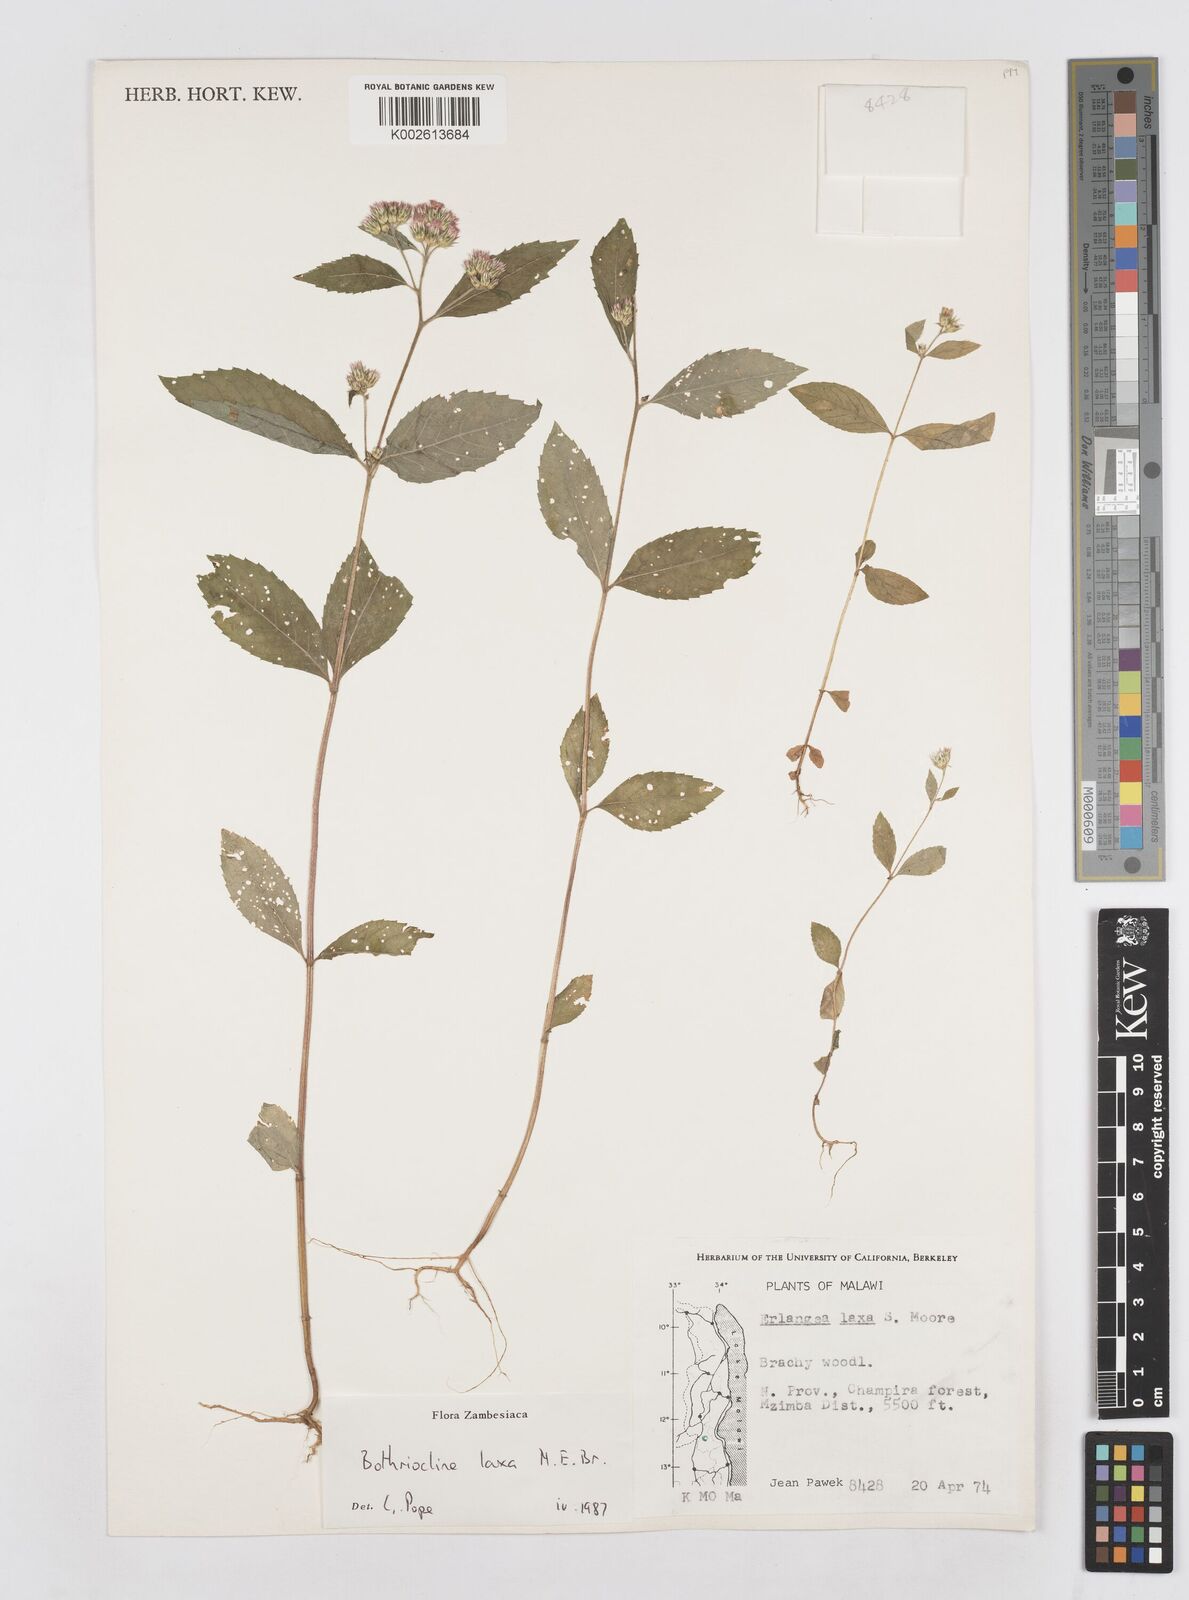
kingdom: Plantae
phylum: Tracheophyta
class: Magnoliopsida
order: Asterales
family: Asteraceae
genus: Bothriocline
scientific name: Bothriocline laxa
